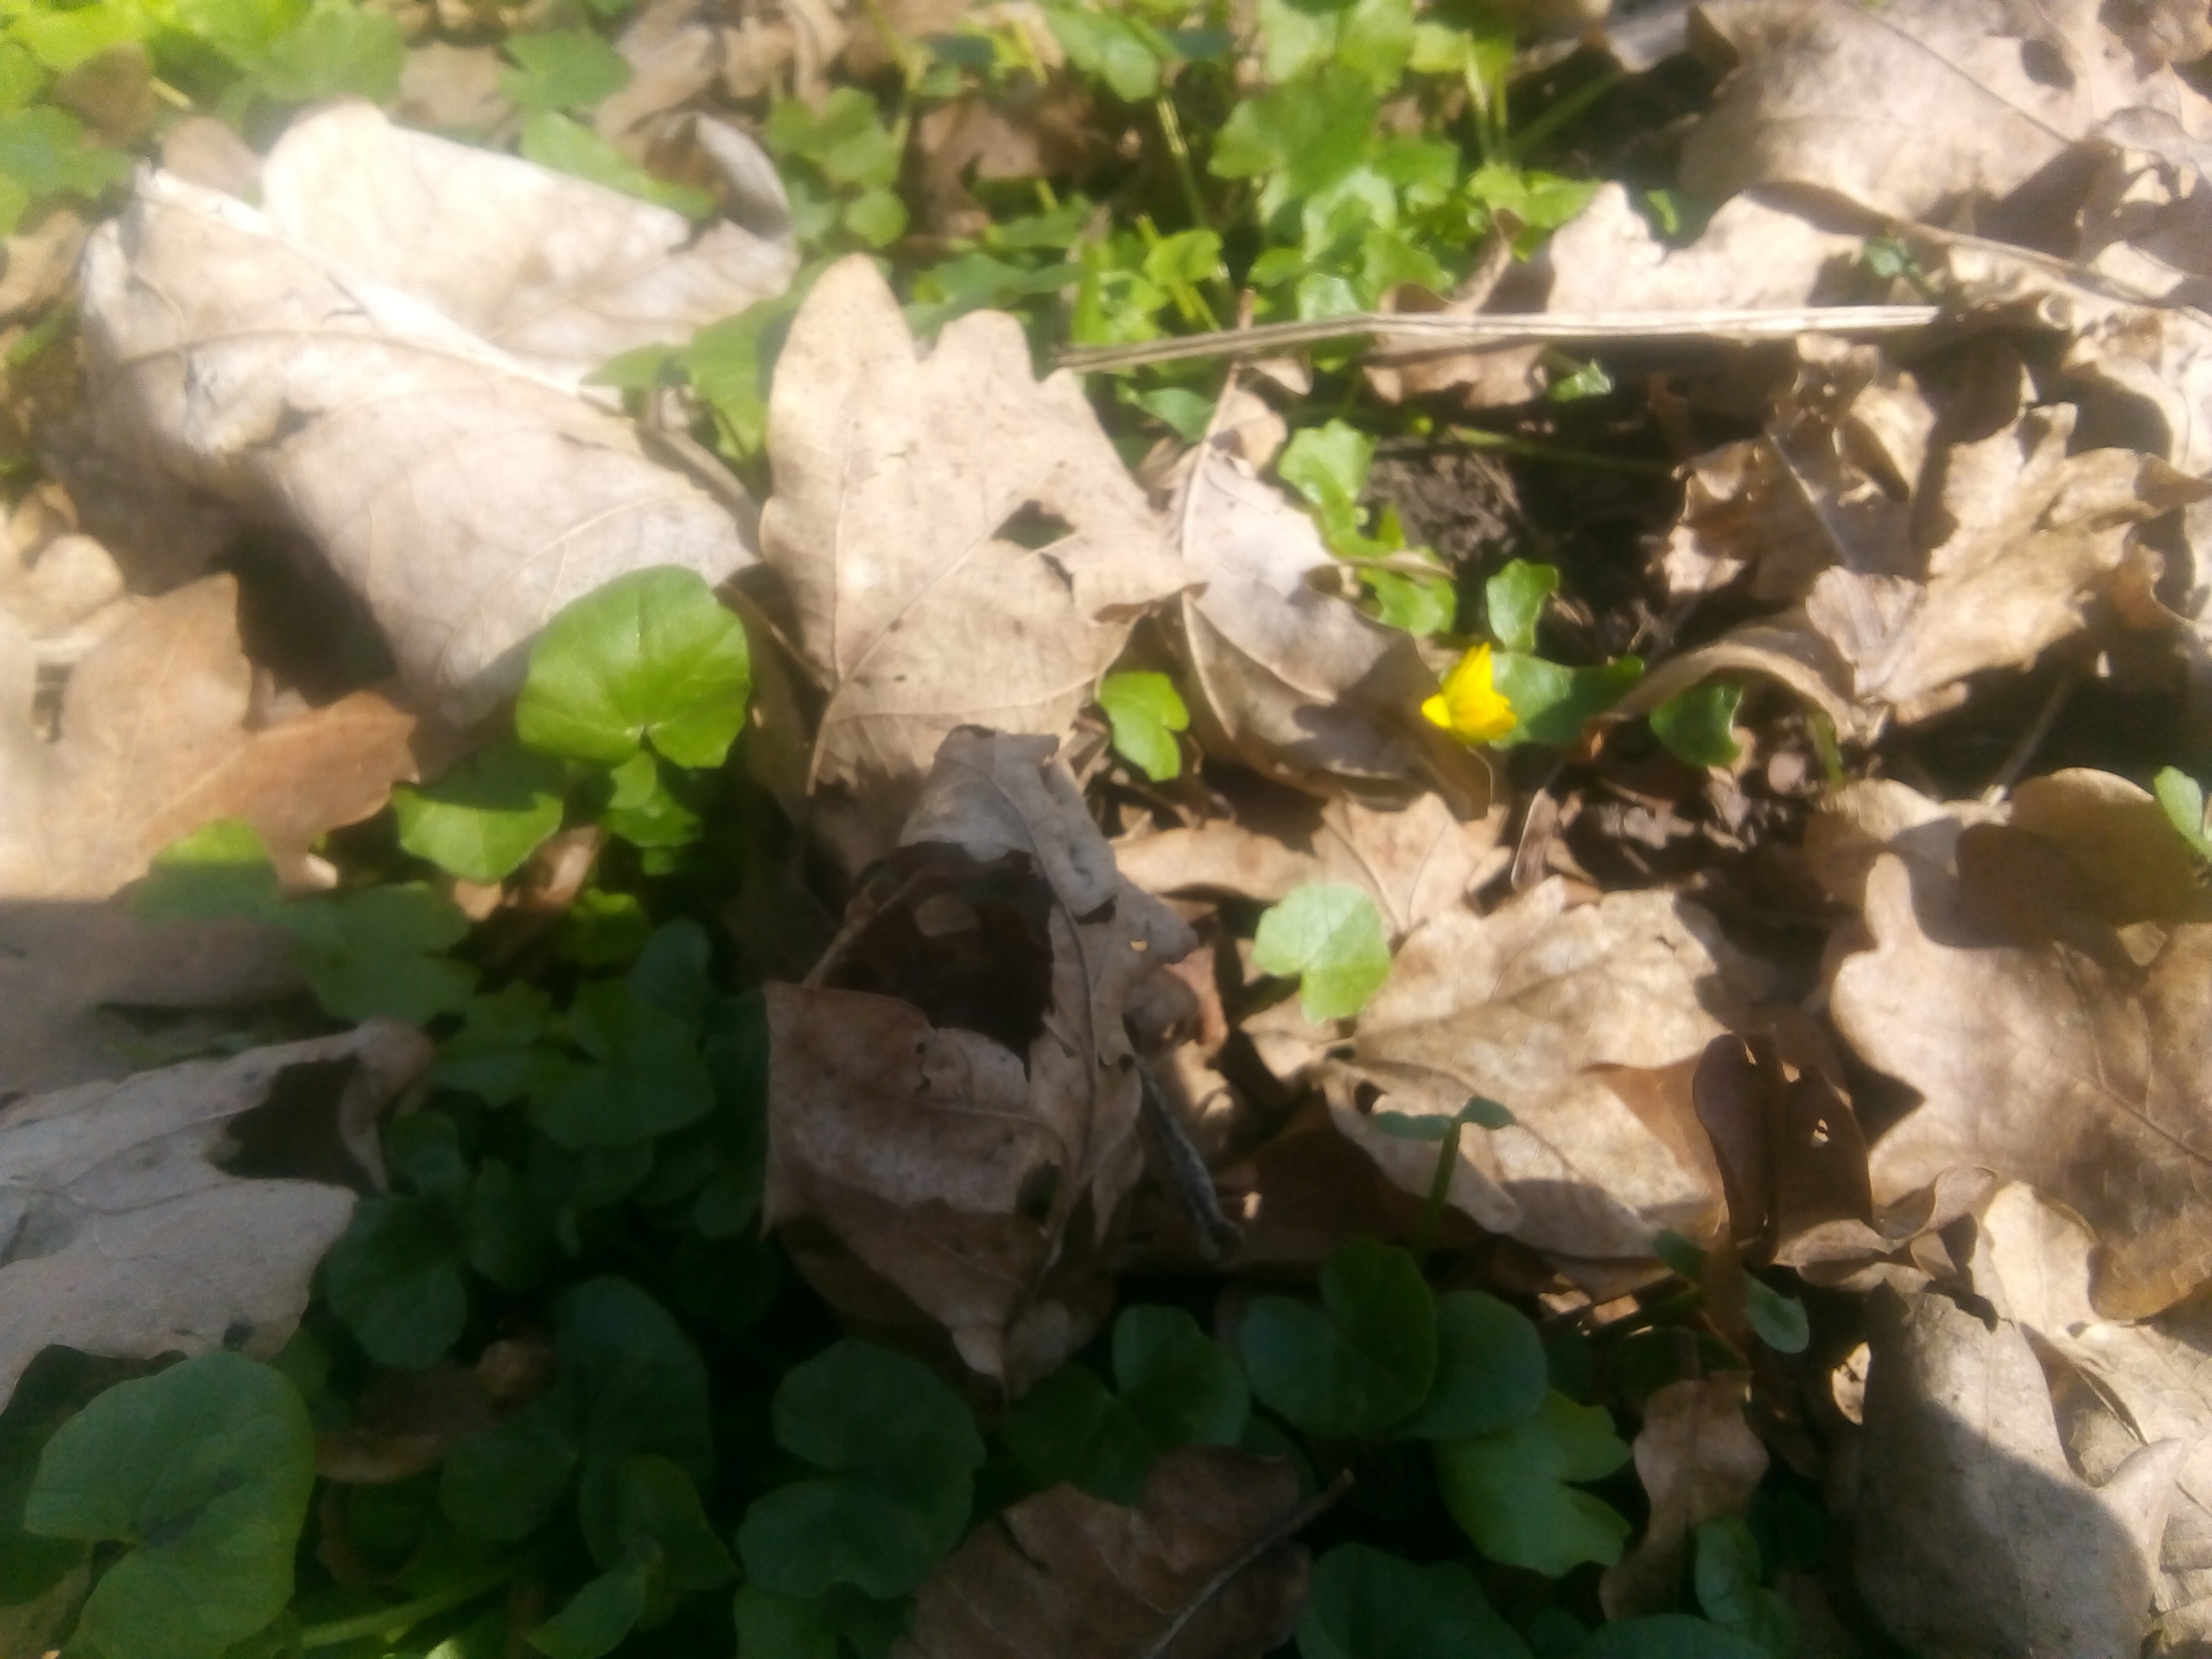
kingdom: Plantae
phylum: Tracheophyta
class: Magnoliopsida
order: Ranunculales
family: Ranunculaceae
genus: Ficaria
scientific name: Ficaria verna
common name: Vorterod
